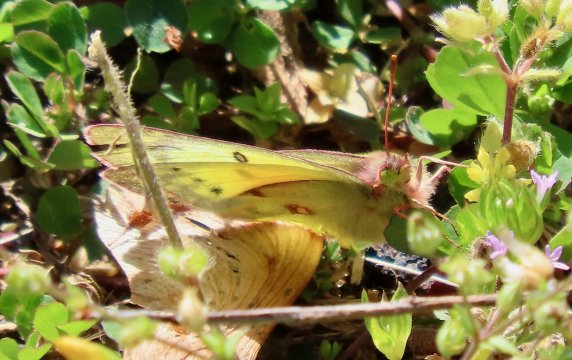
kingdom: Animalia
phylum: Arthropoda
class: Insecta
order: Lepidoptera
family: Pieridae
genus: Colias
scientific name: Colias eurytheme
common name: Orange Sulphur
